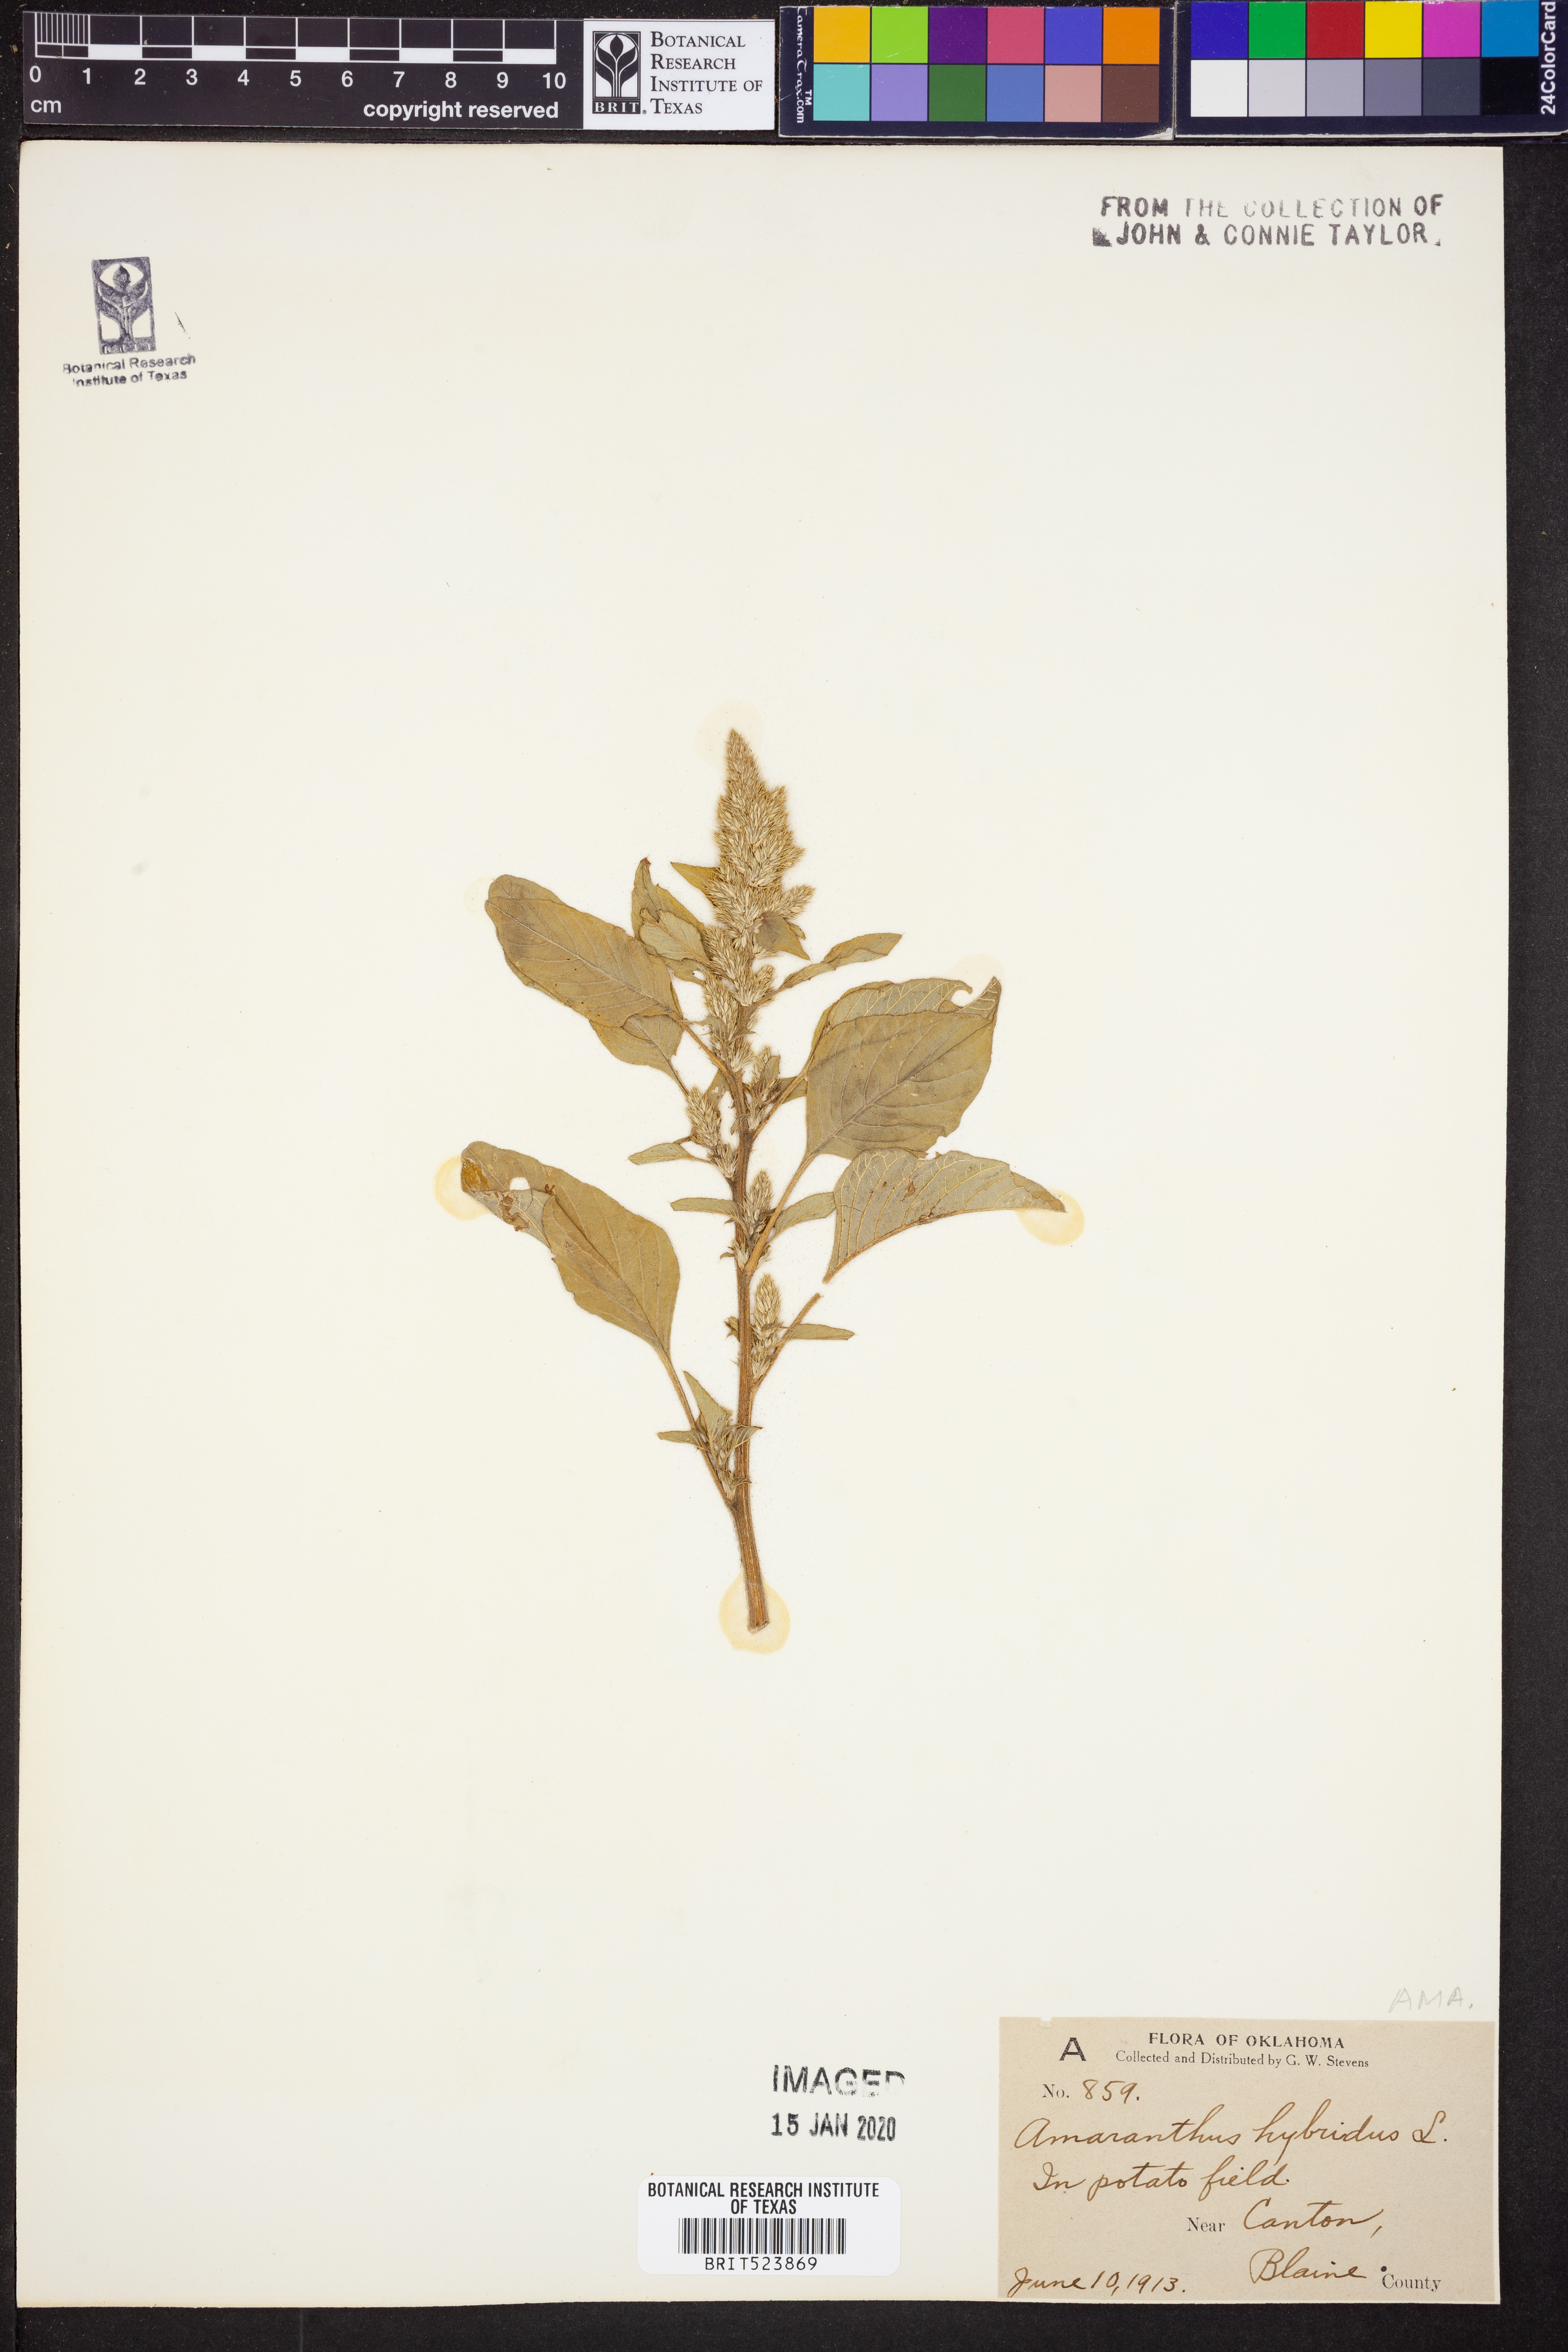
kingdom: Plantae
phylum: Tracheophyta
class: Magnoliopsida
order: Caryophyllales
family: Amaranthaceae
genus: Amaranthus
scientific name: Amaranthus hybridus
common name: Green amaranth
